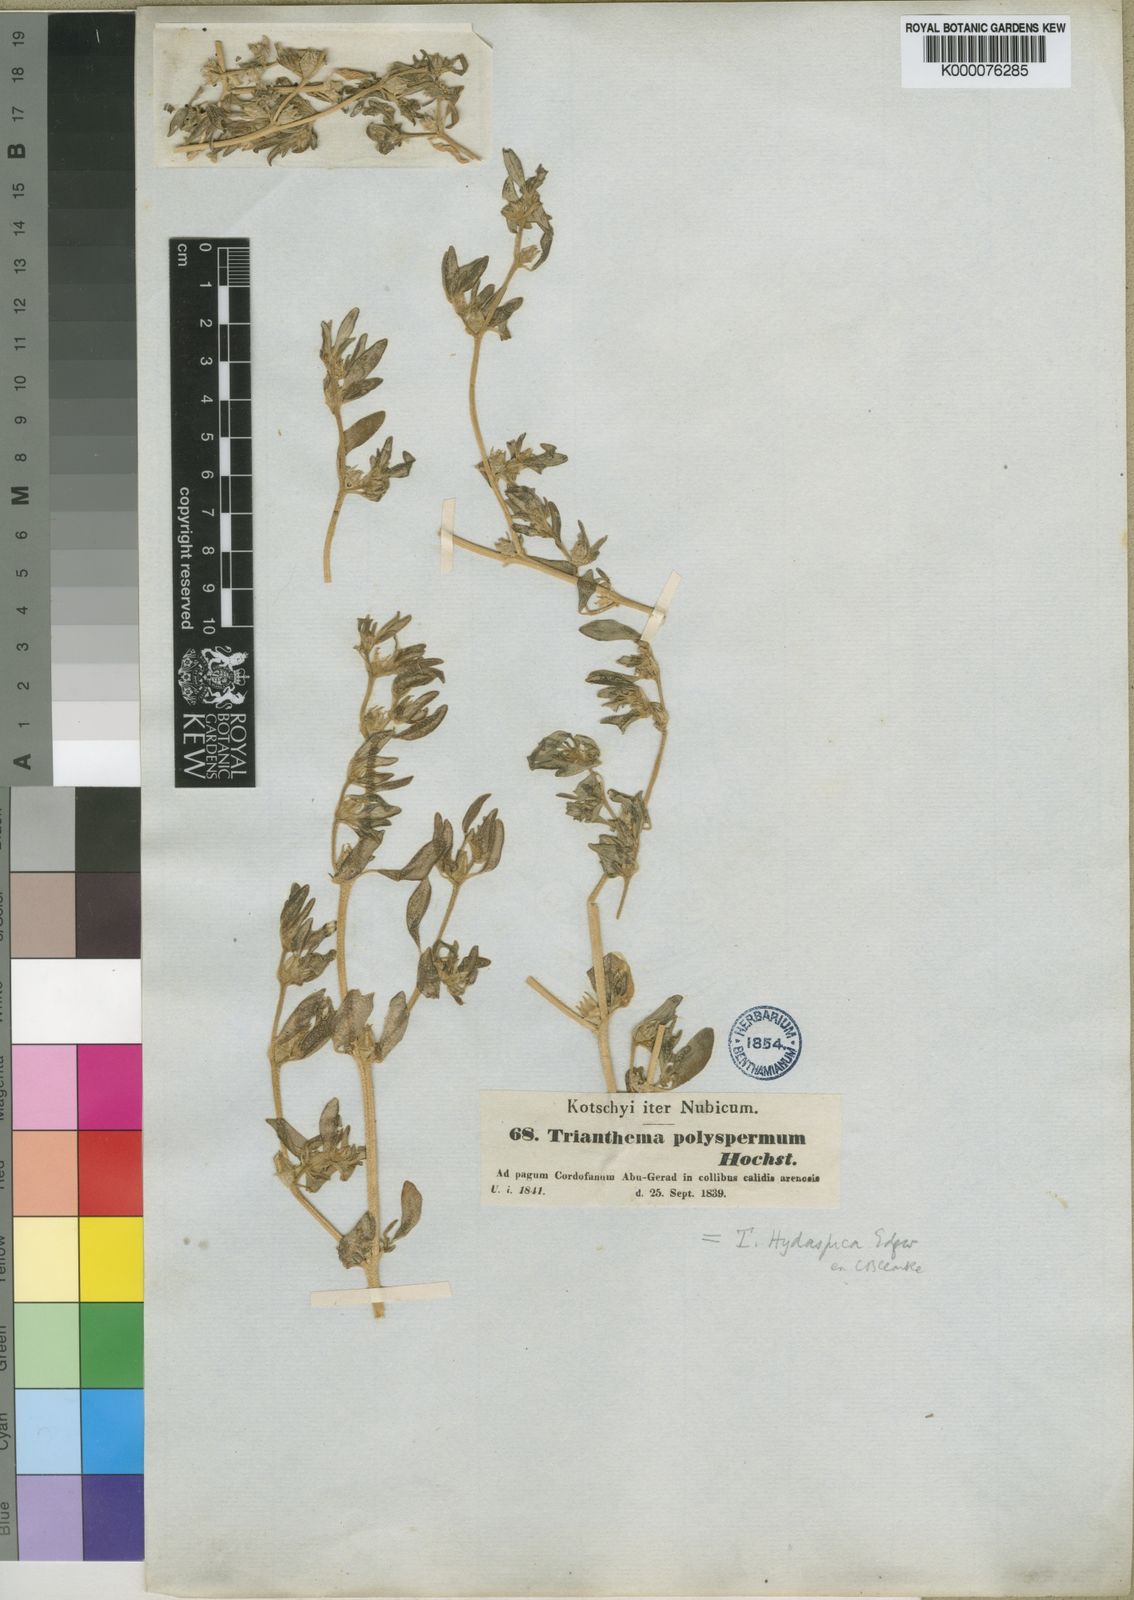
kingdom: Plantae
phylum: Tracheophyta
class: Magnoliopsida
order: Caryophyllales
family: Aizoaceae
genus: Sesuvium
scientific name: Sesuvium sesuvioides
